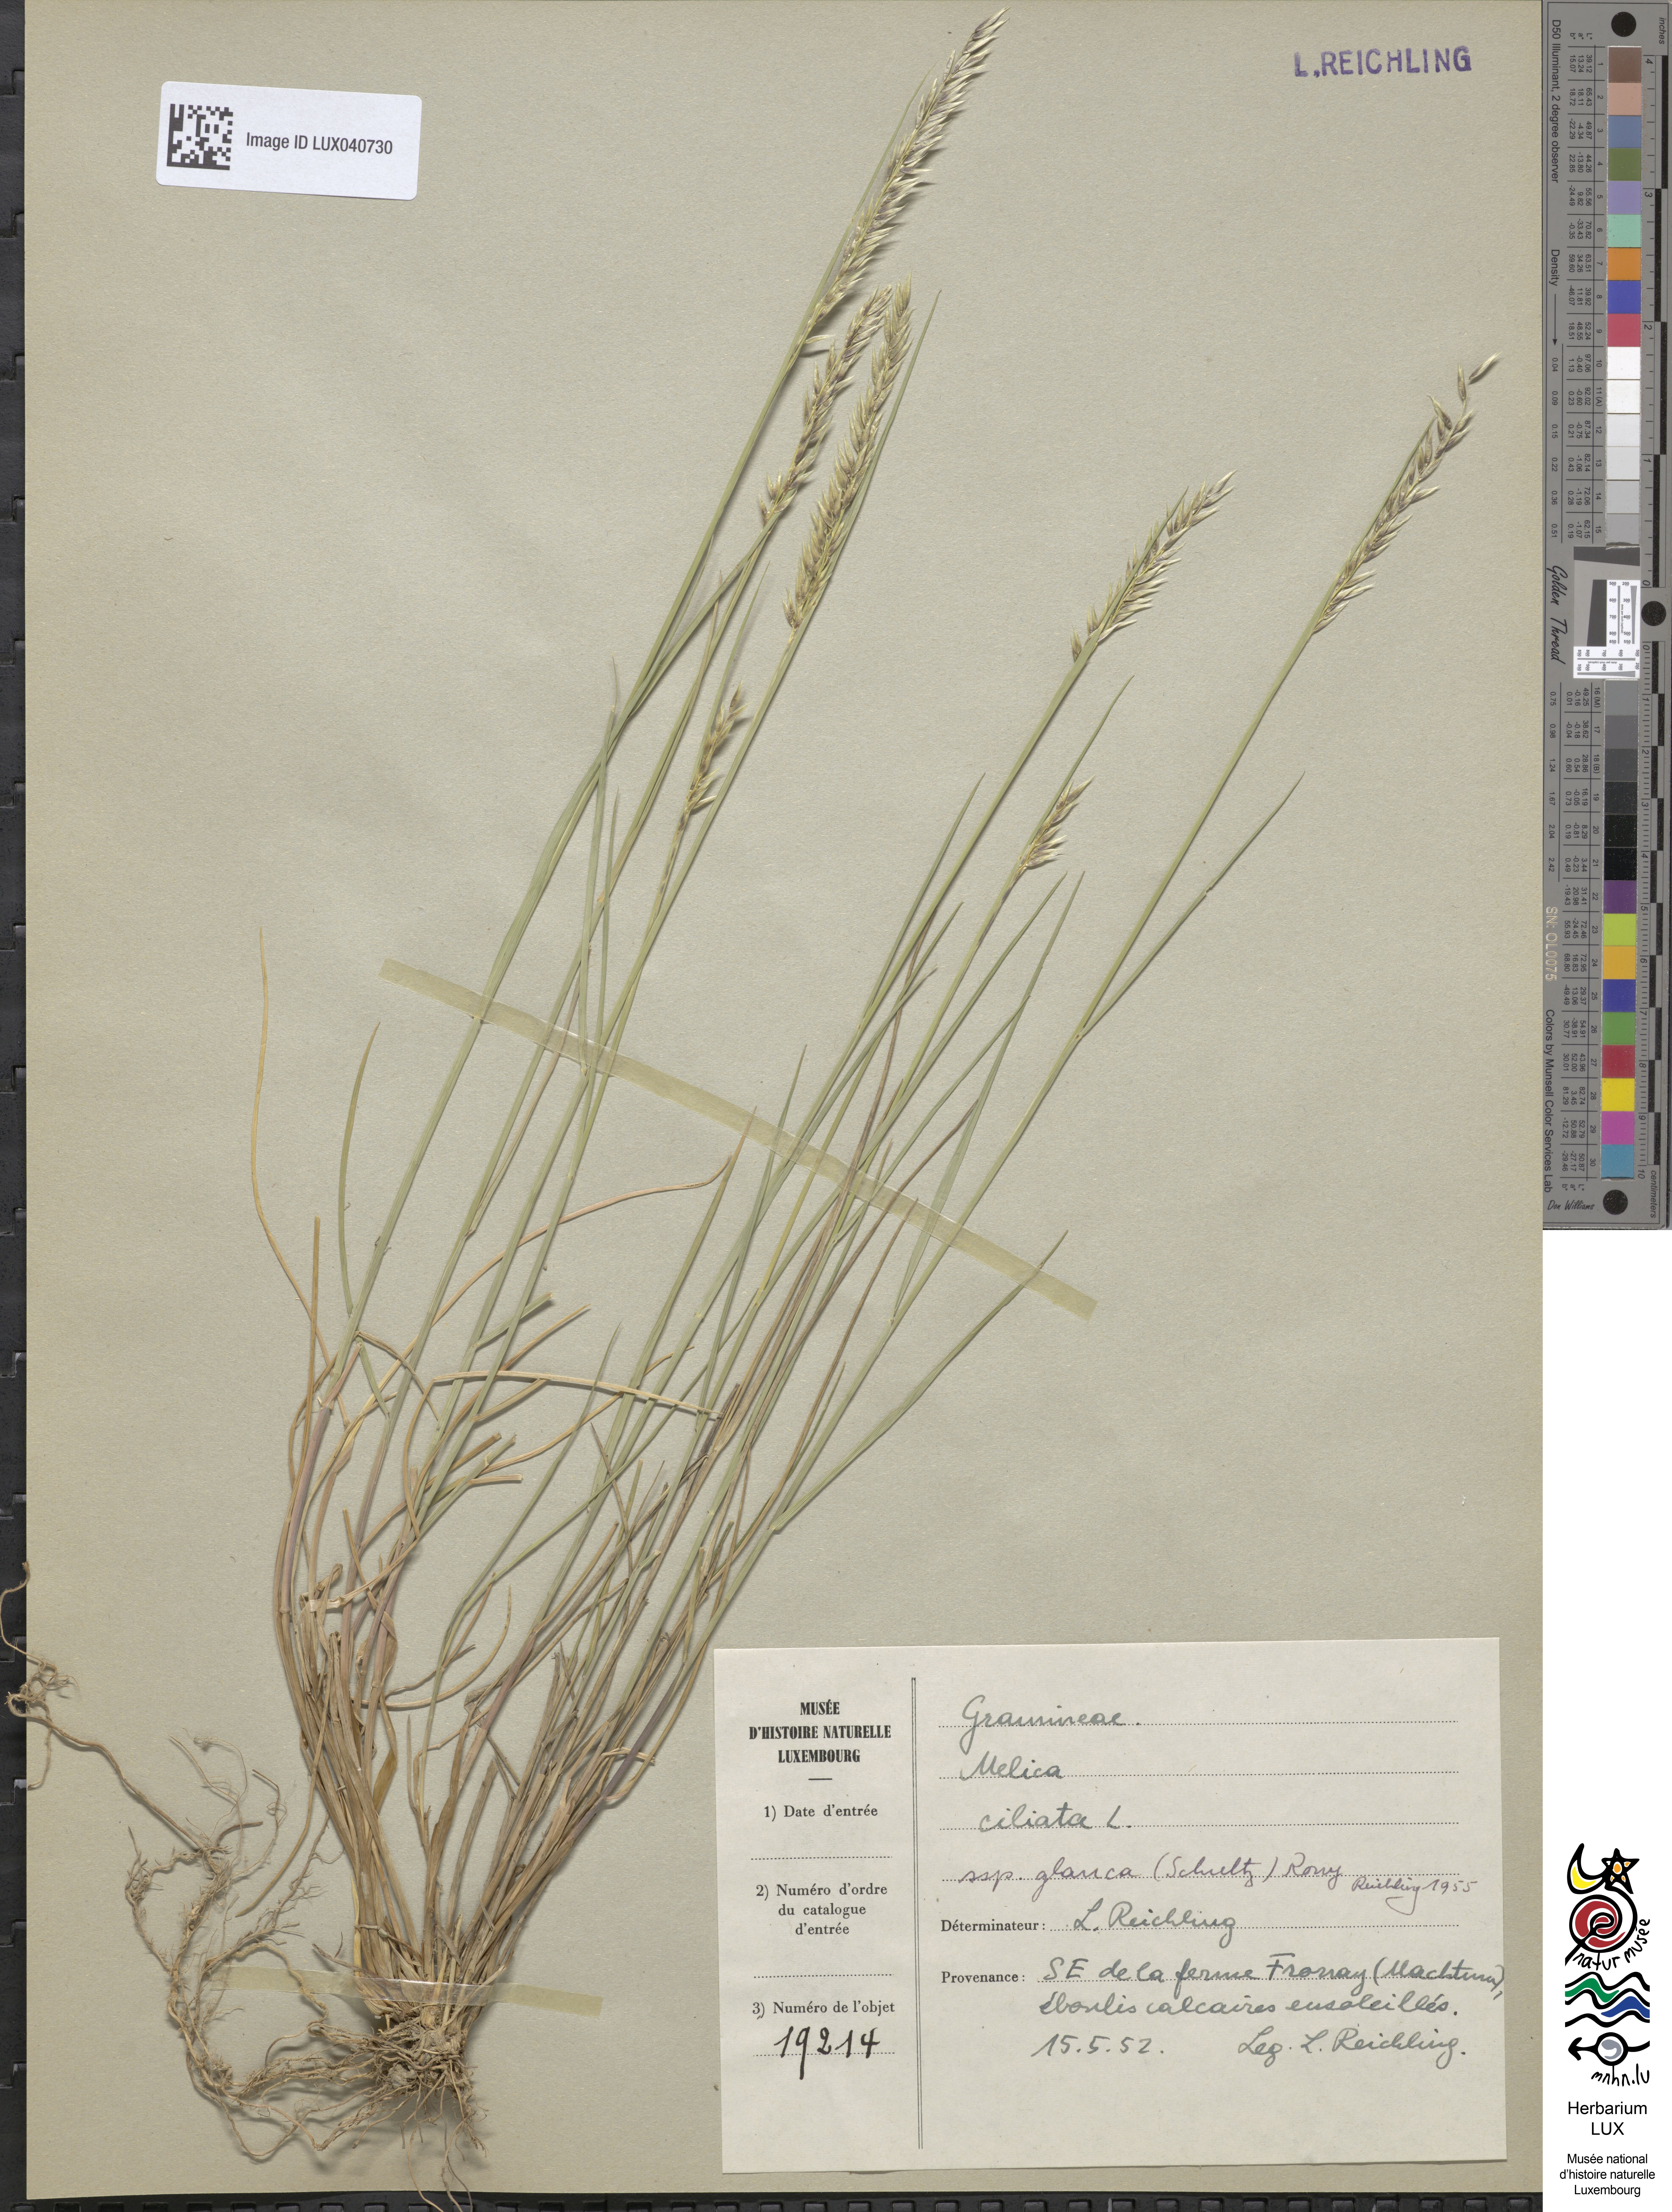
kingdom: Plantae
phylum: Tracheophyta
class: Liliopsida
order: Poales
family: Poaceae
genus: Melica
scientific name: Melica ciliata
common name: Hairy melicgrass
